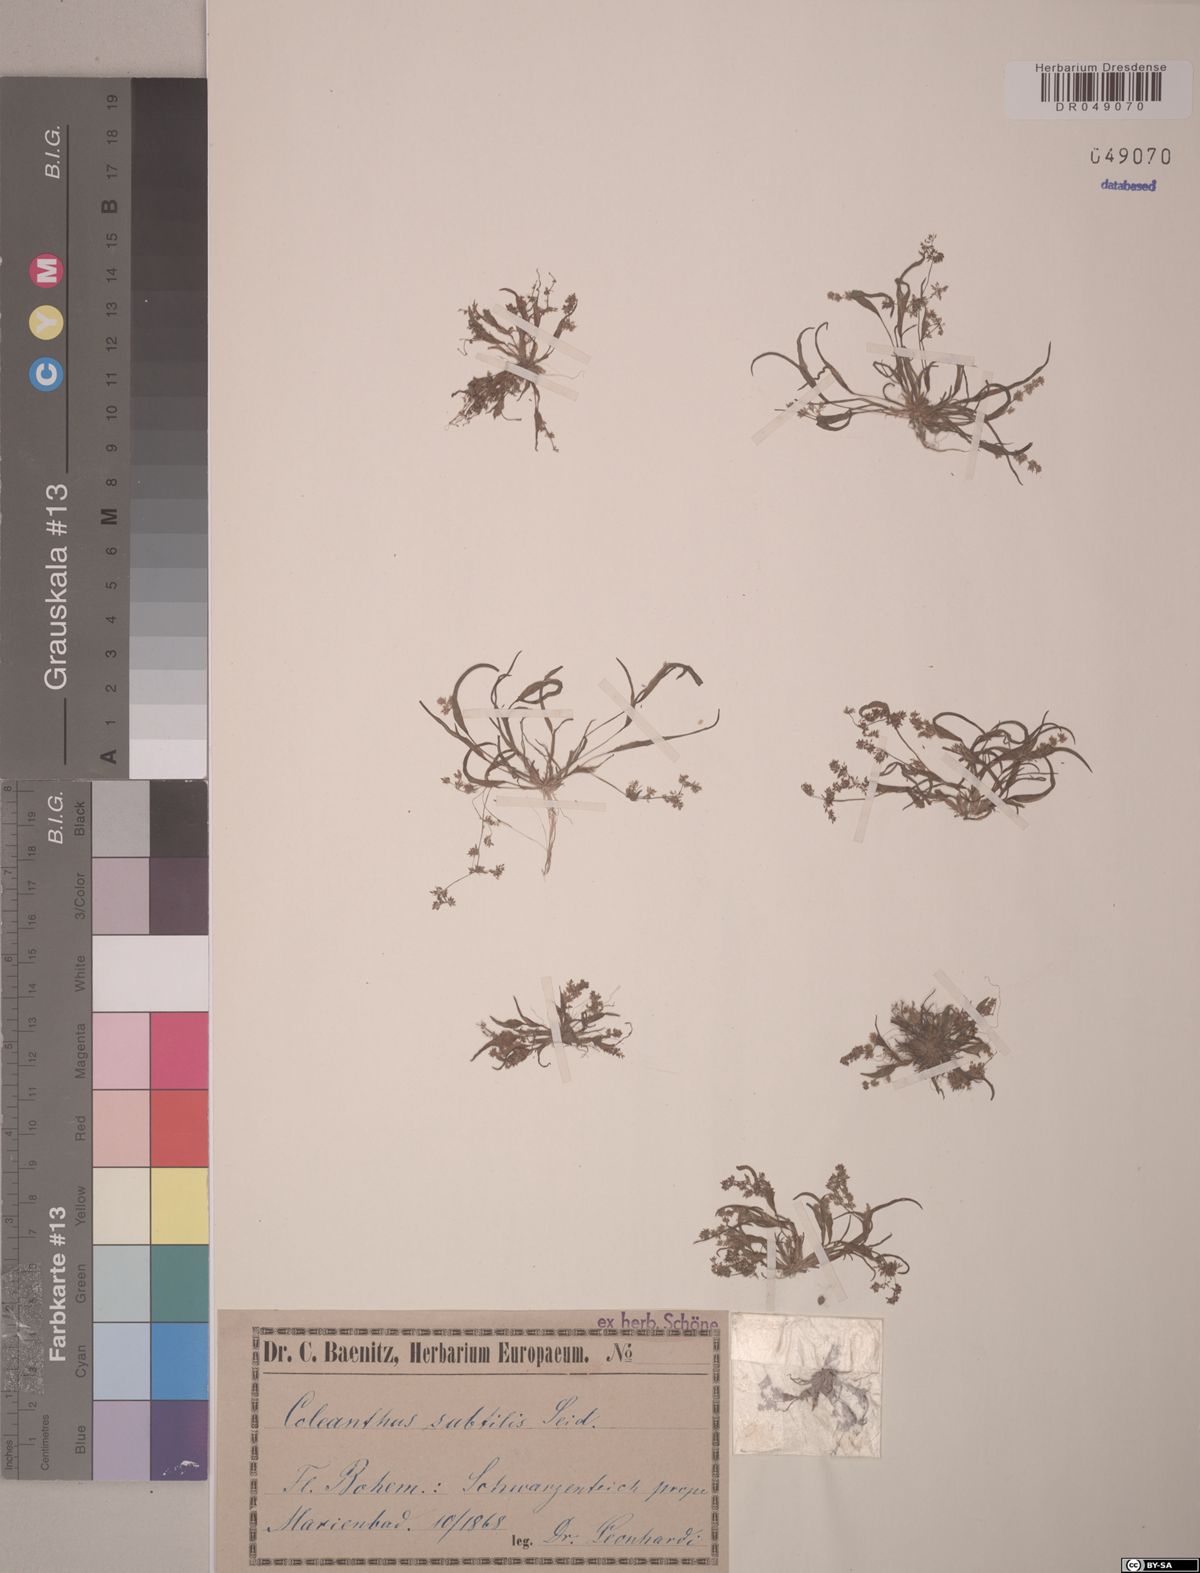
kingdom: Plantae
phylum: Tracheophyta
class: Liliopsida
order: Poales
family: Poaceae
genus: Coleanthus
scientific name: Coleanthus subtilis
